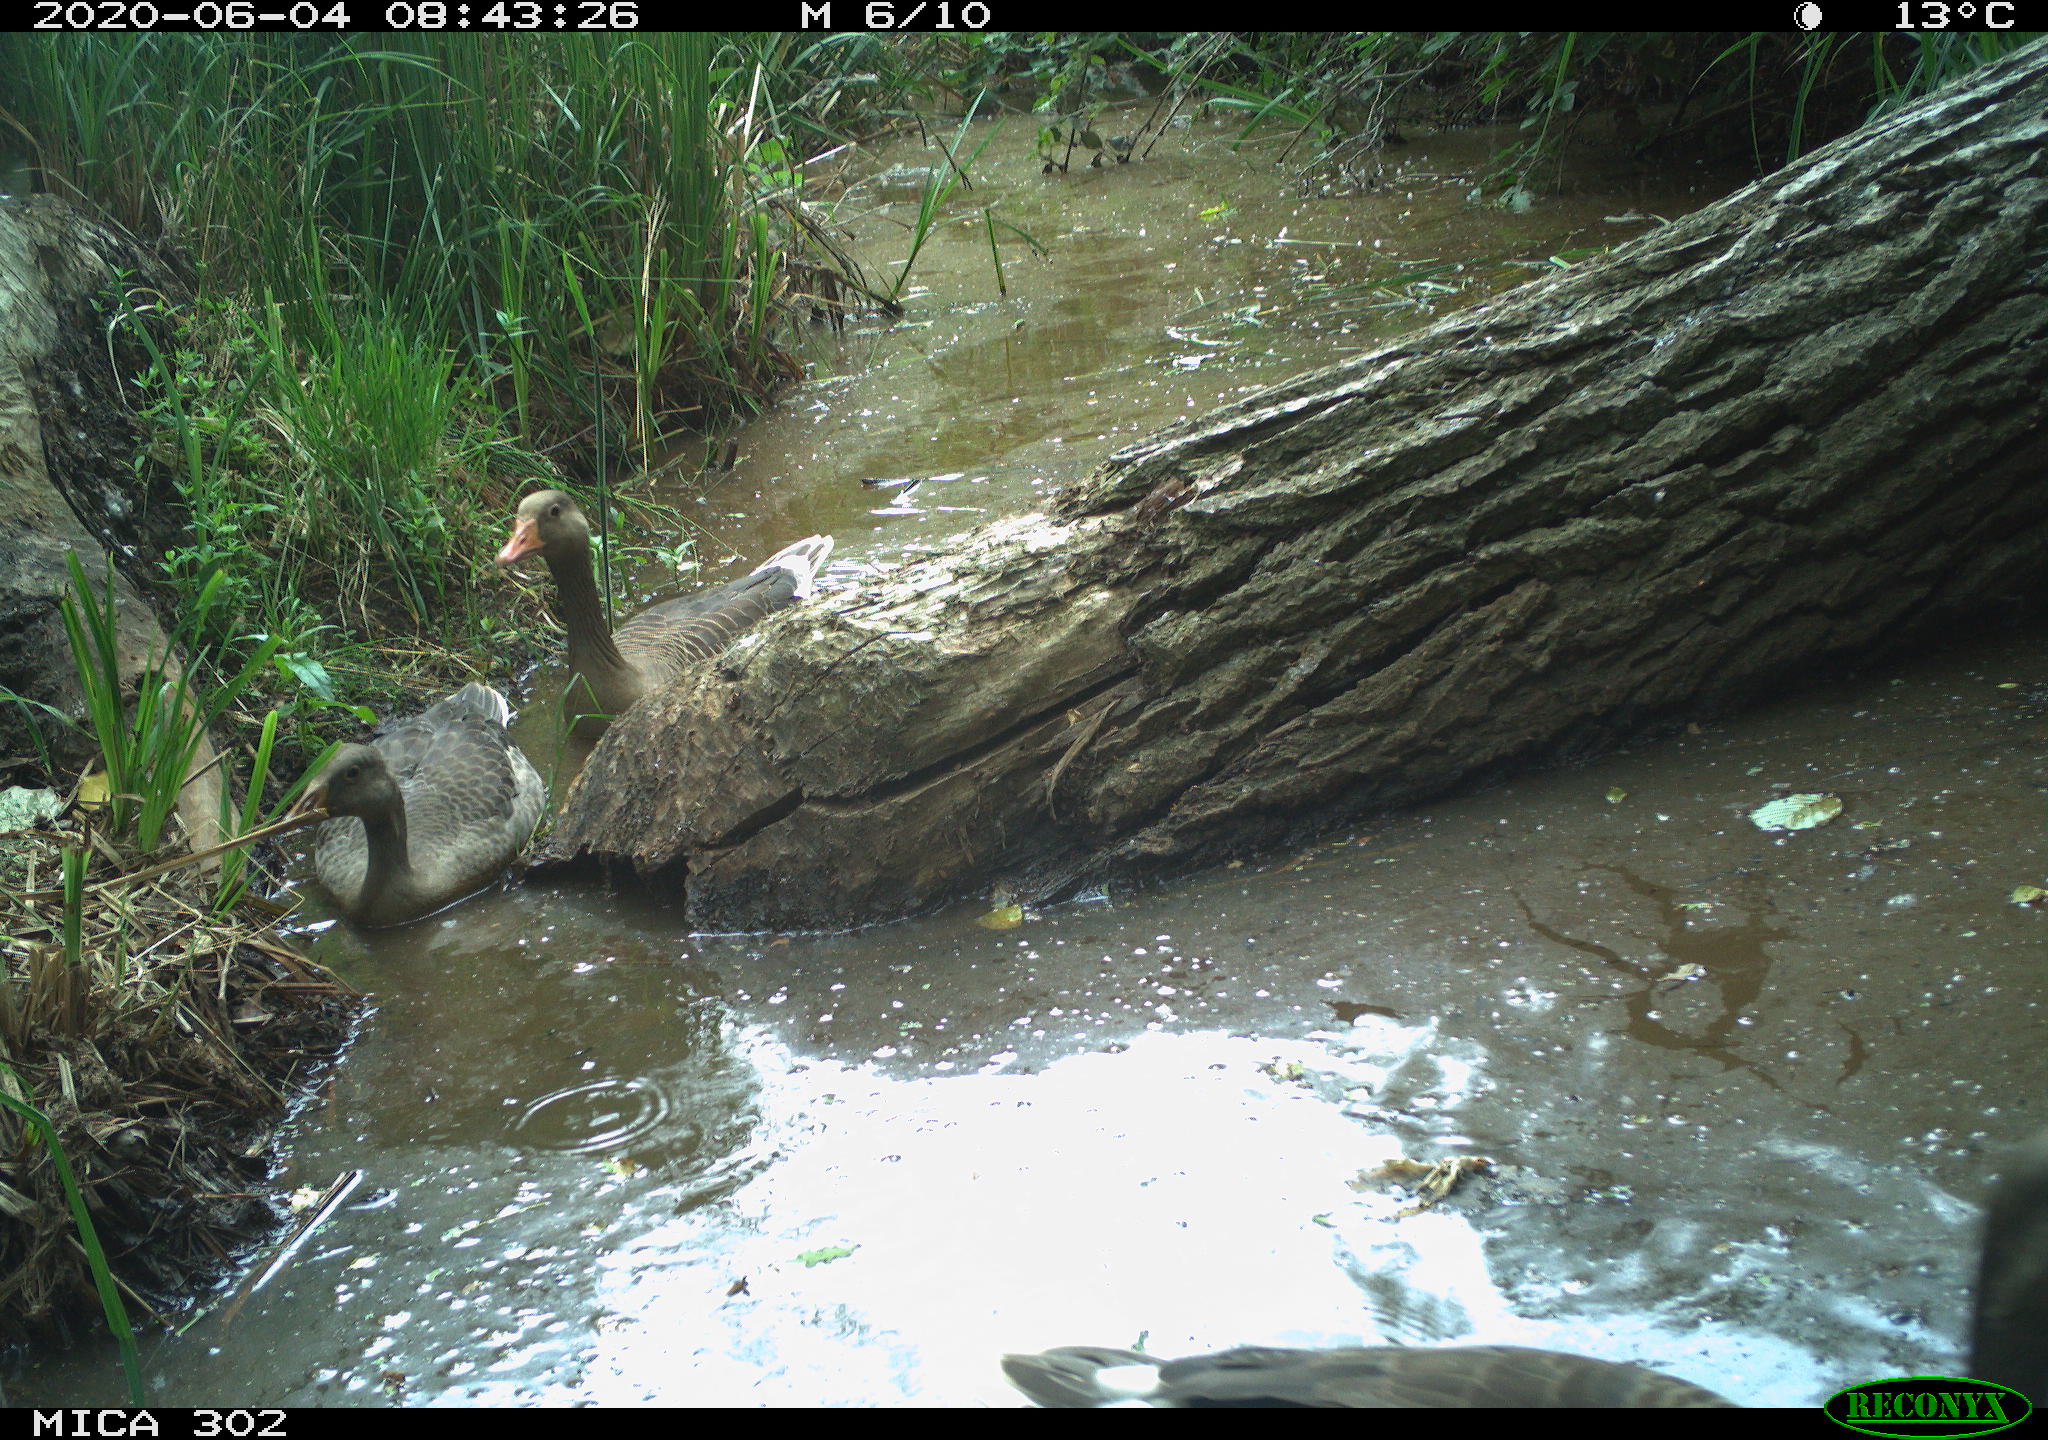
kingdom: Animalia
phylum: Chordata
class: Aves
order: Anseriformes
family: Anatidae
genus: Anser
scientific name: Anser anser
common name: Greylag goose
